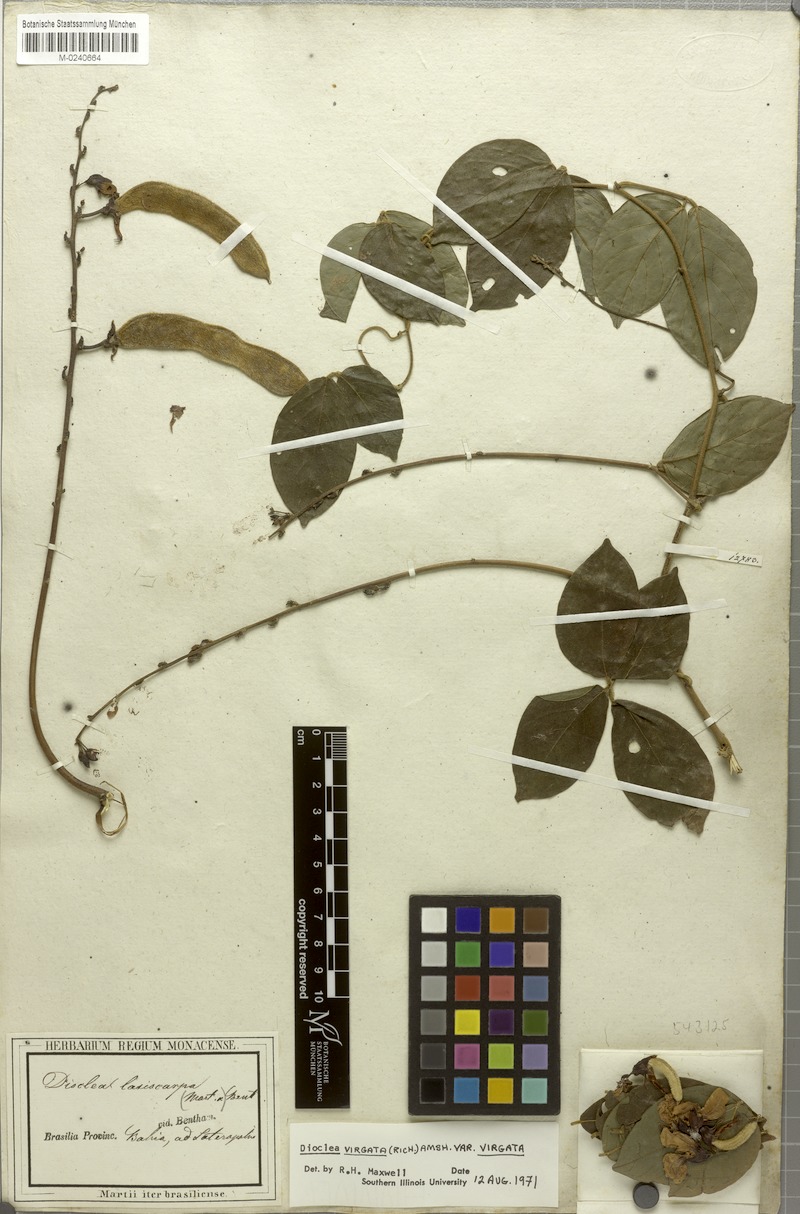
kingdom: Plantae
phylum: Tracheophyta
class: Magnoliopsida
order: Fabales
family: Fabaceae
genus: Dioclea
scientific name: Dioclea virgata
